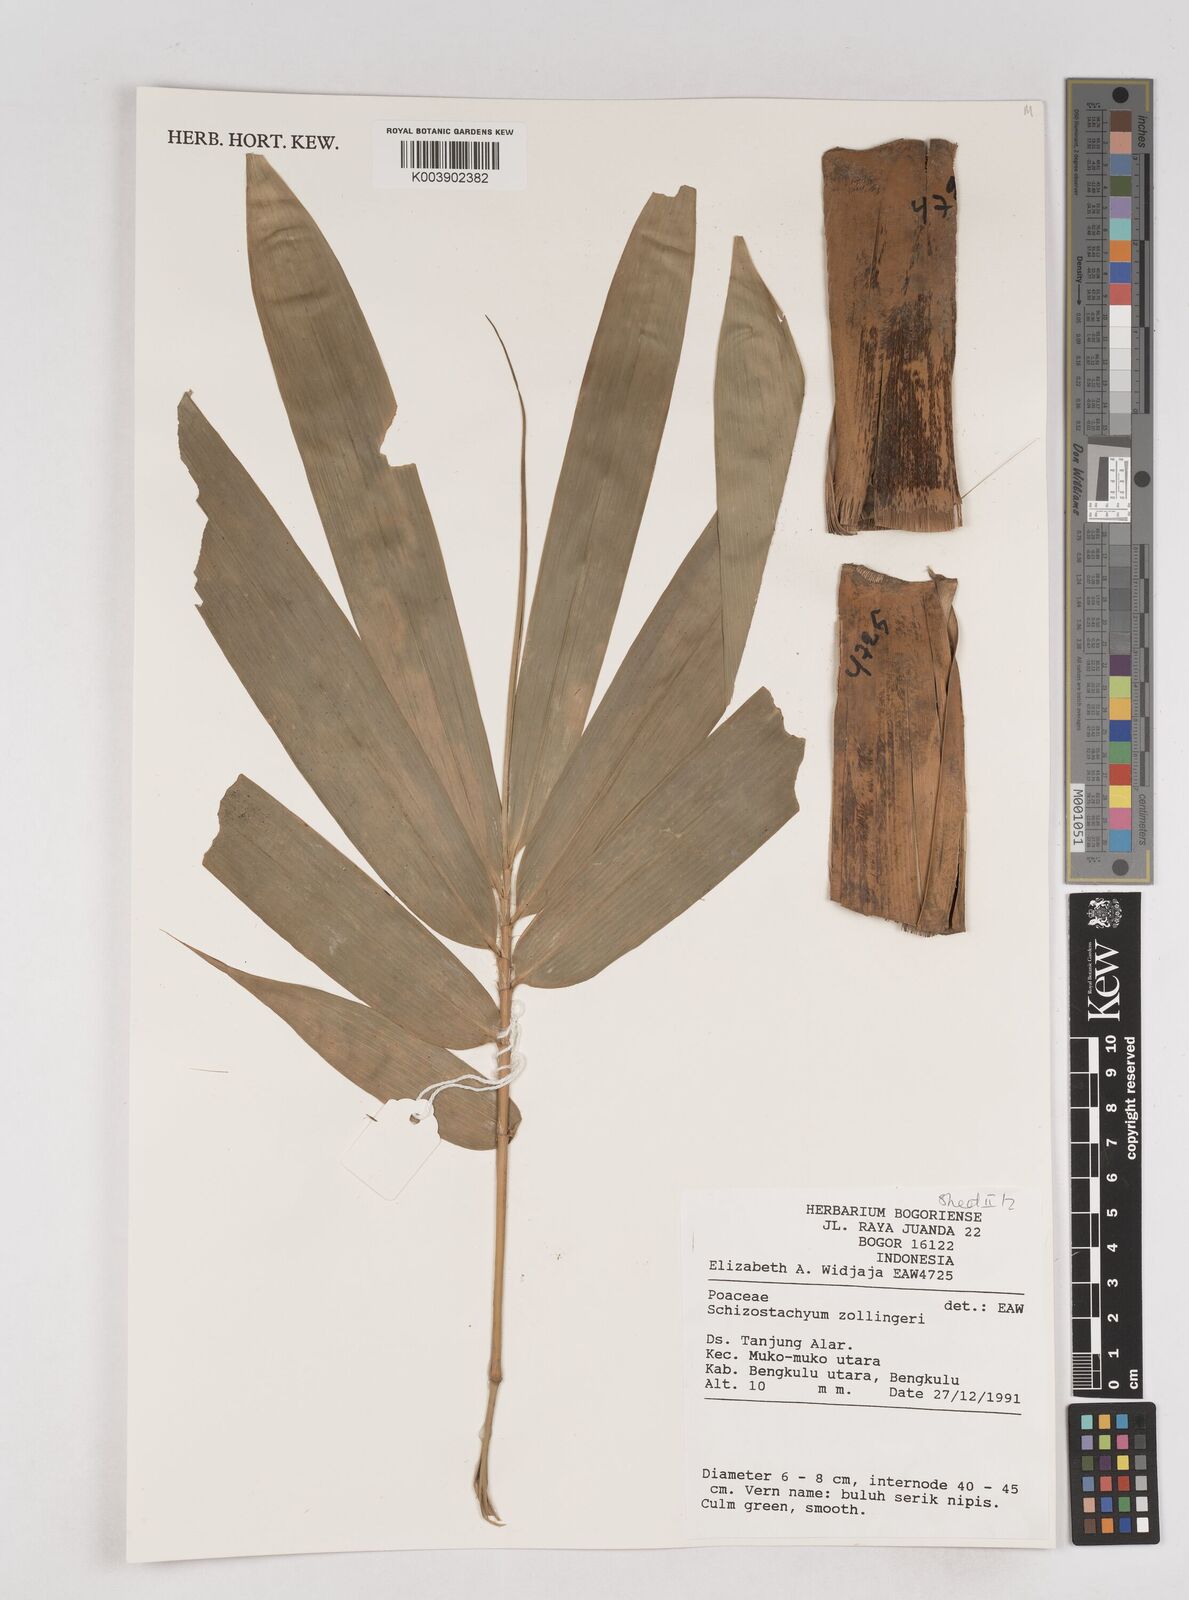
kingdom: Plantae
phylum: Tracheophyta
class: Liliopsida
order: Poales
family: Poaceae
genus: Schizostachyum
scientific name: Schizostachyum zollingeri
